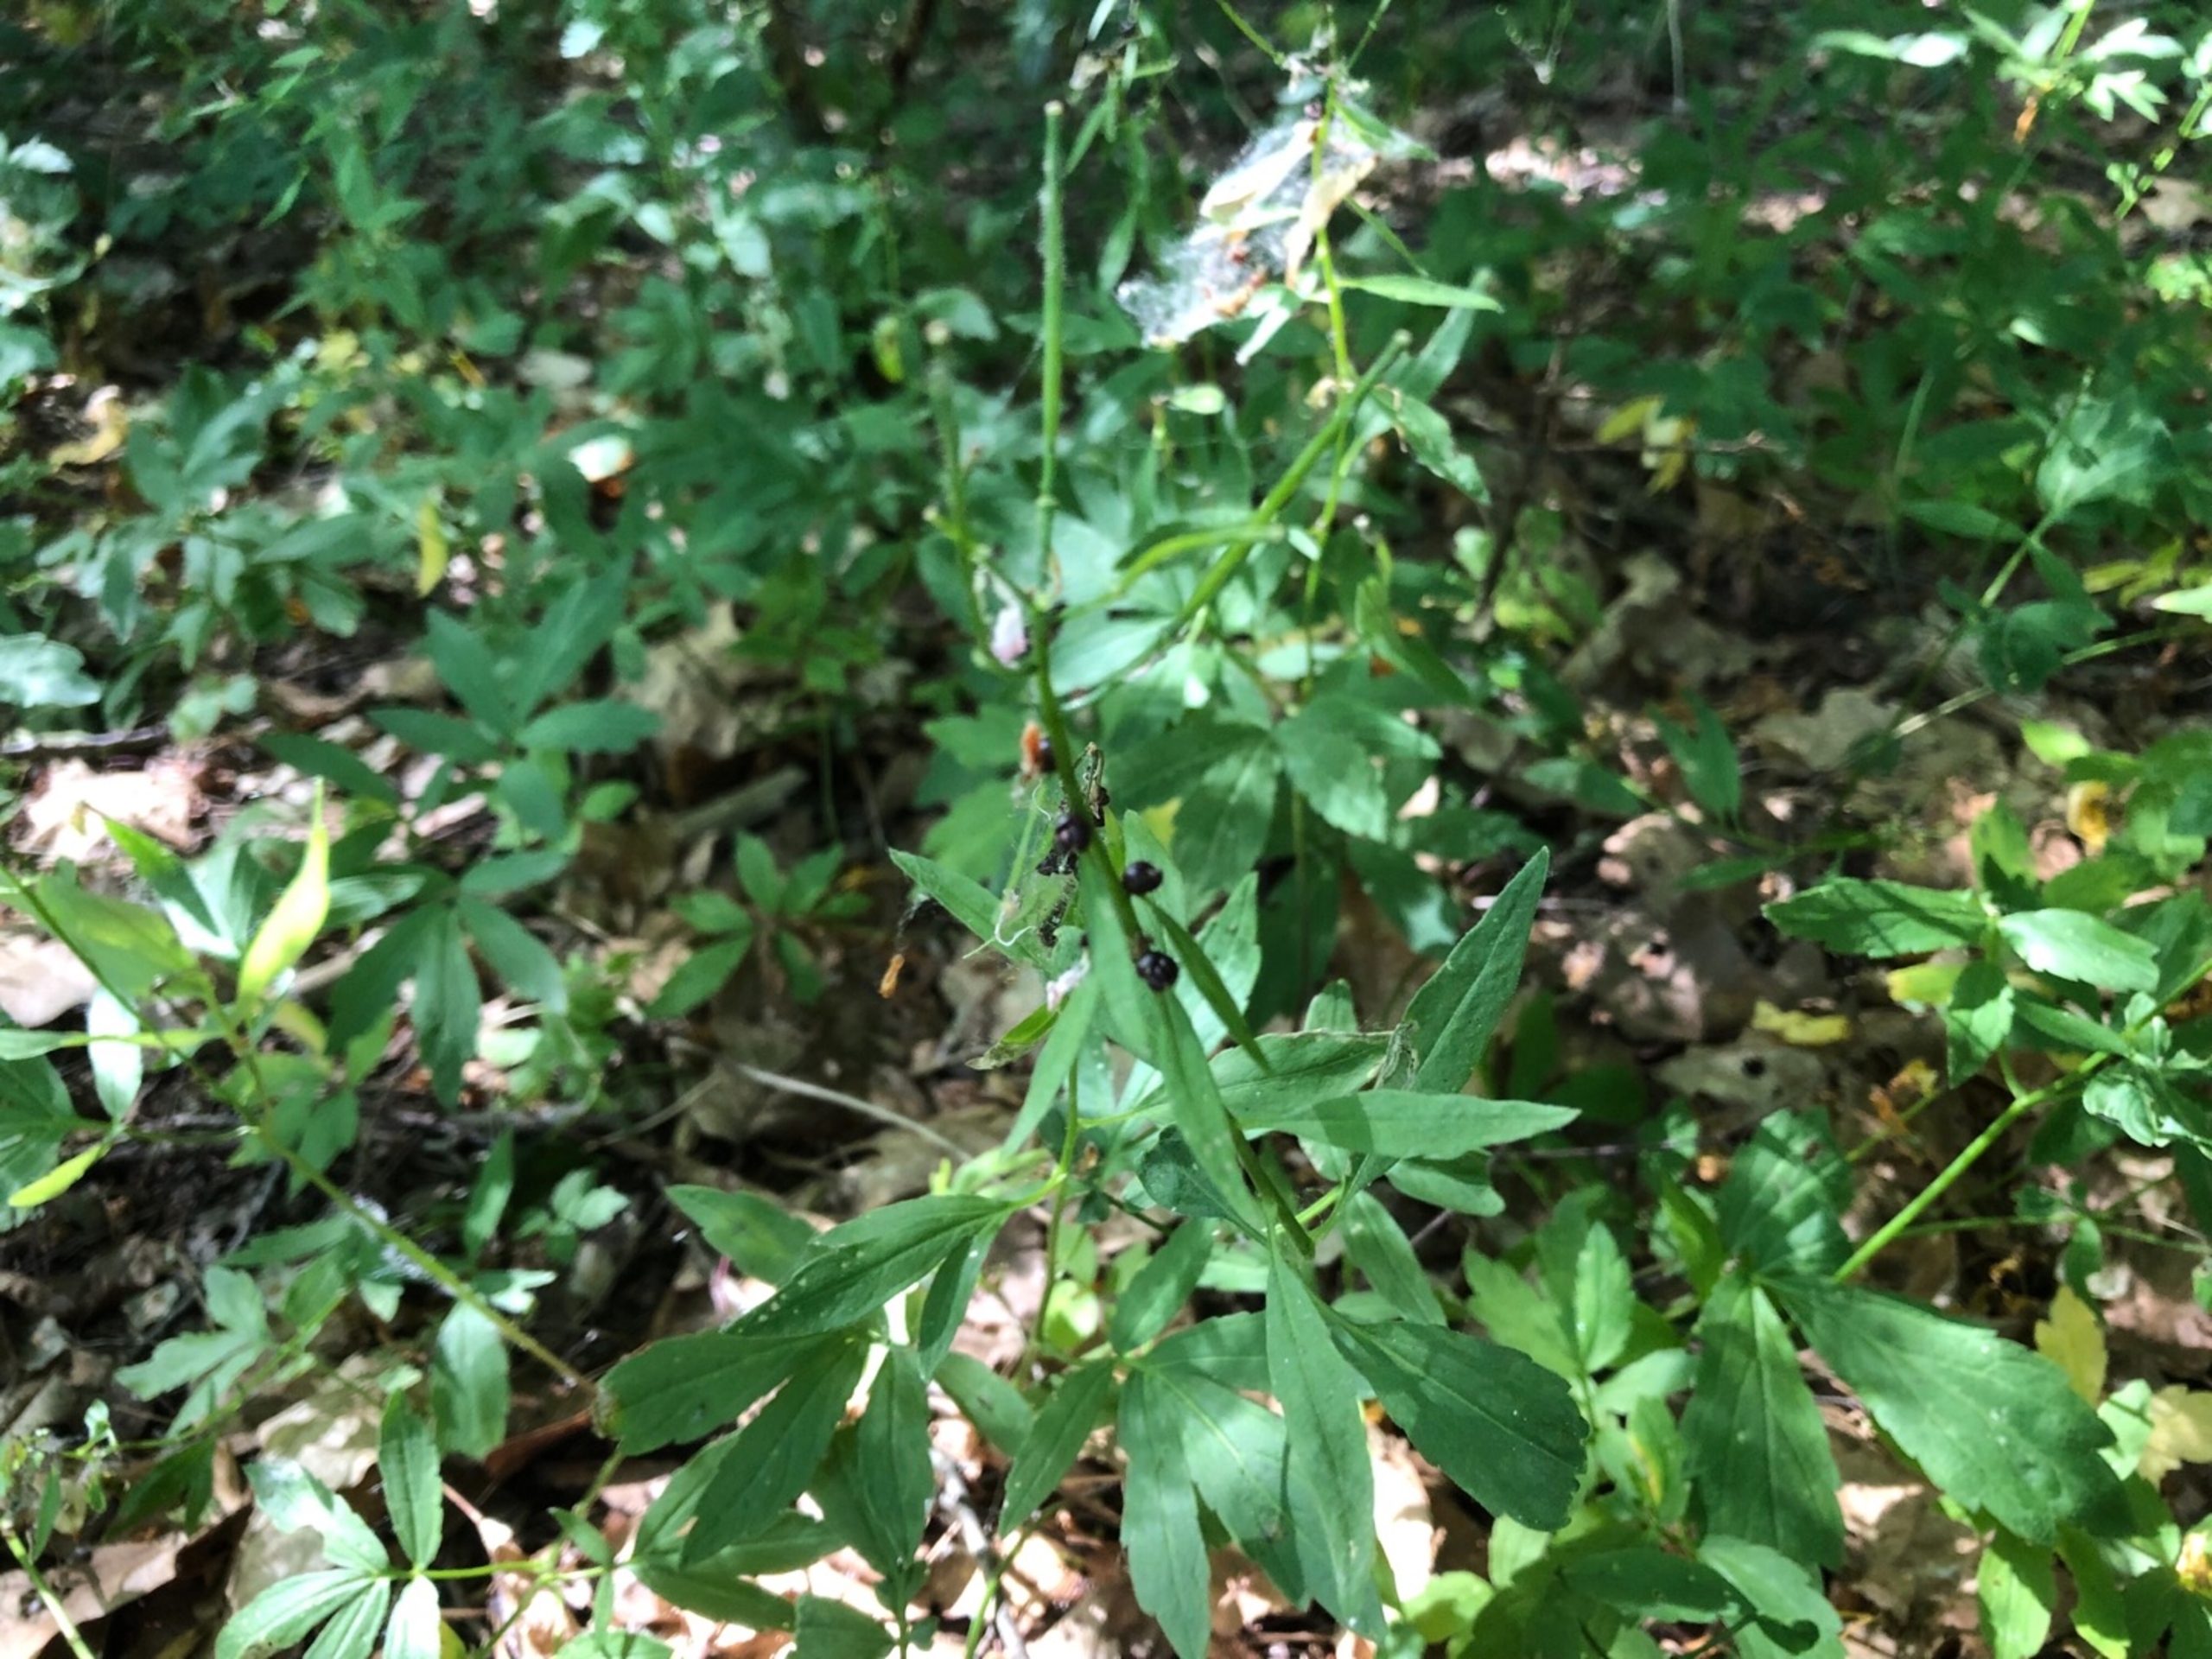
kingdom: Plantae
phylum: Tracheophyta
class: Magnoliopsida
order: Brassicales
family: Brassicaceae
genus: Cardamine
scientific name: Cardamine bulbifera
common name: Tandrod
